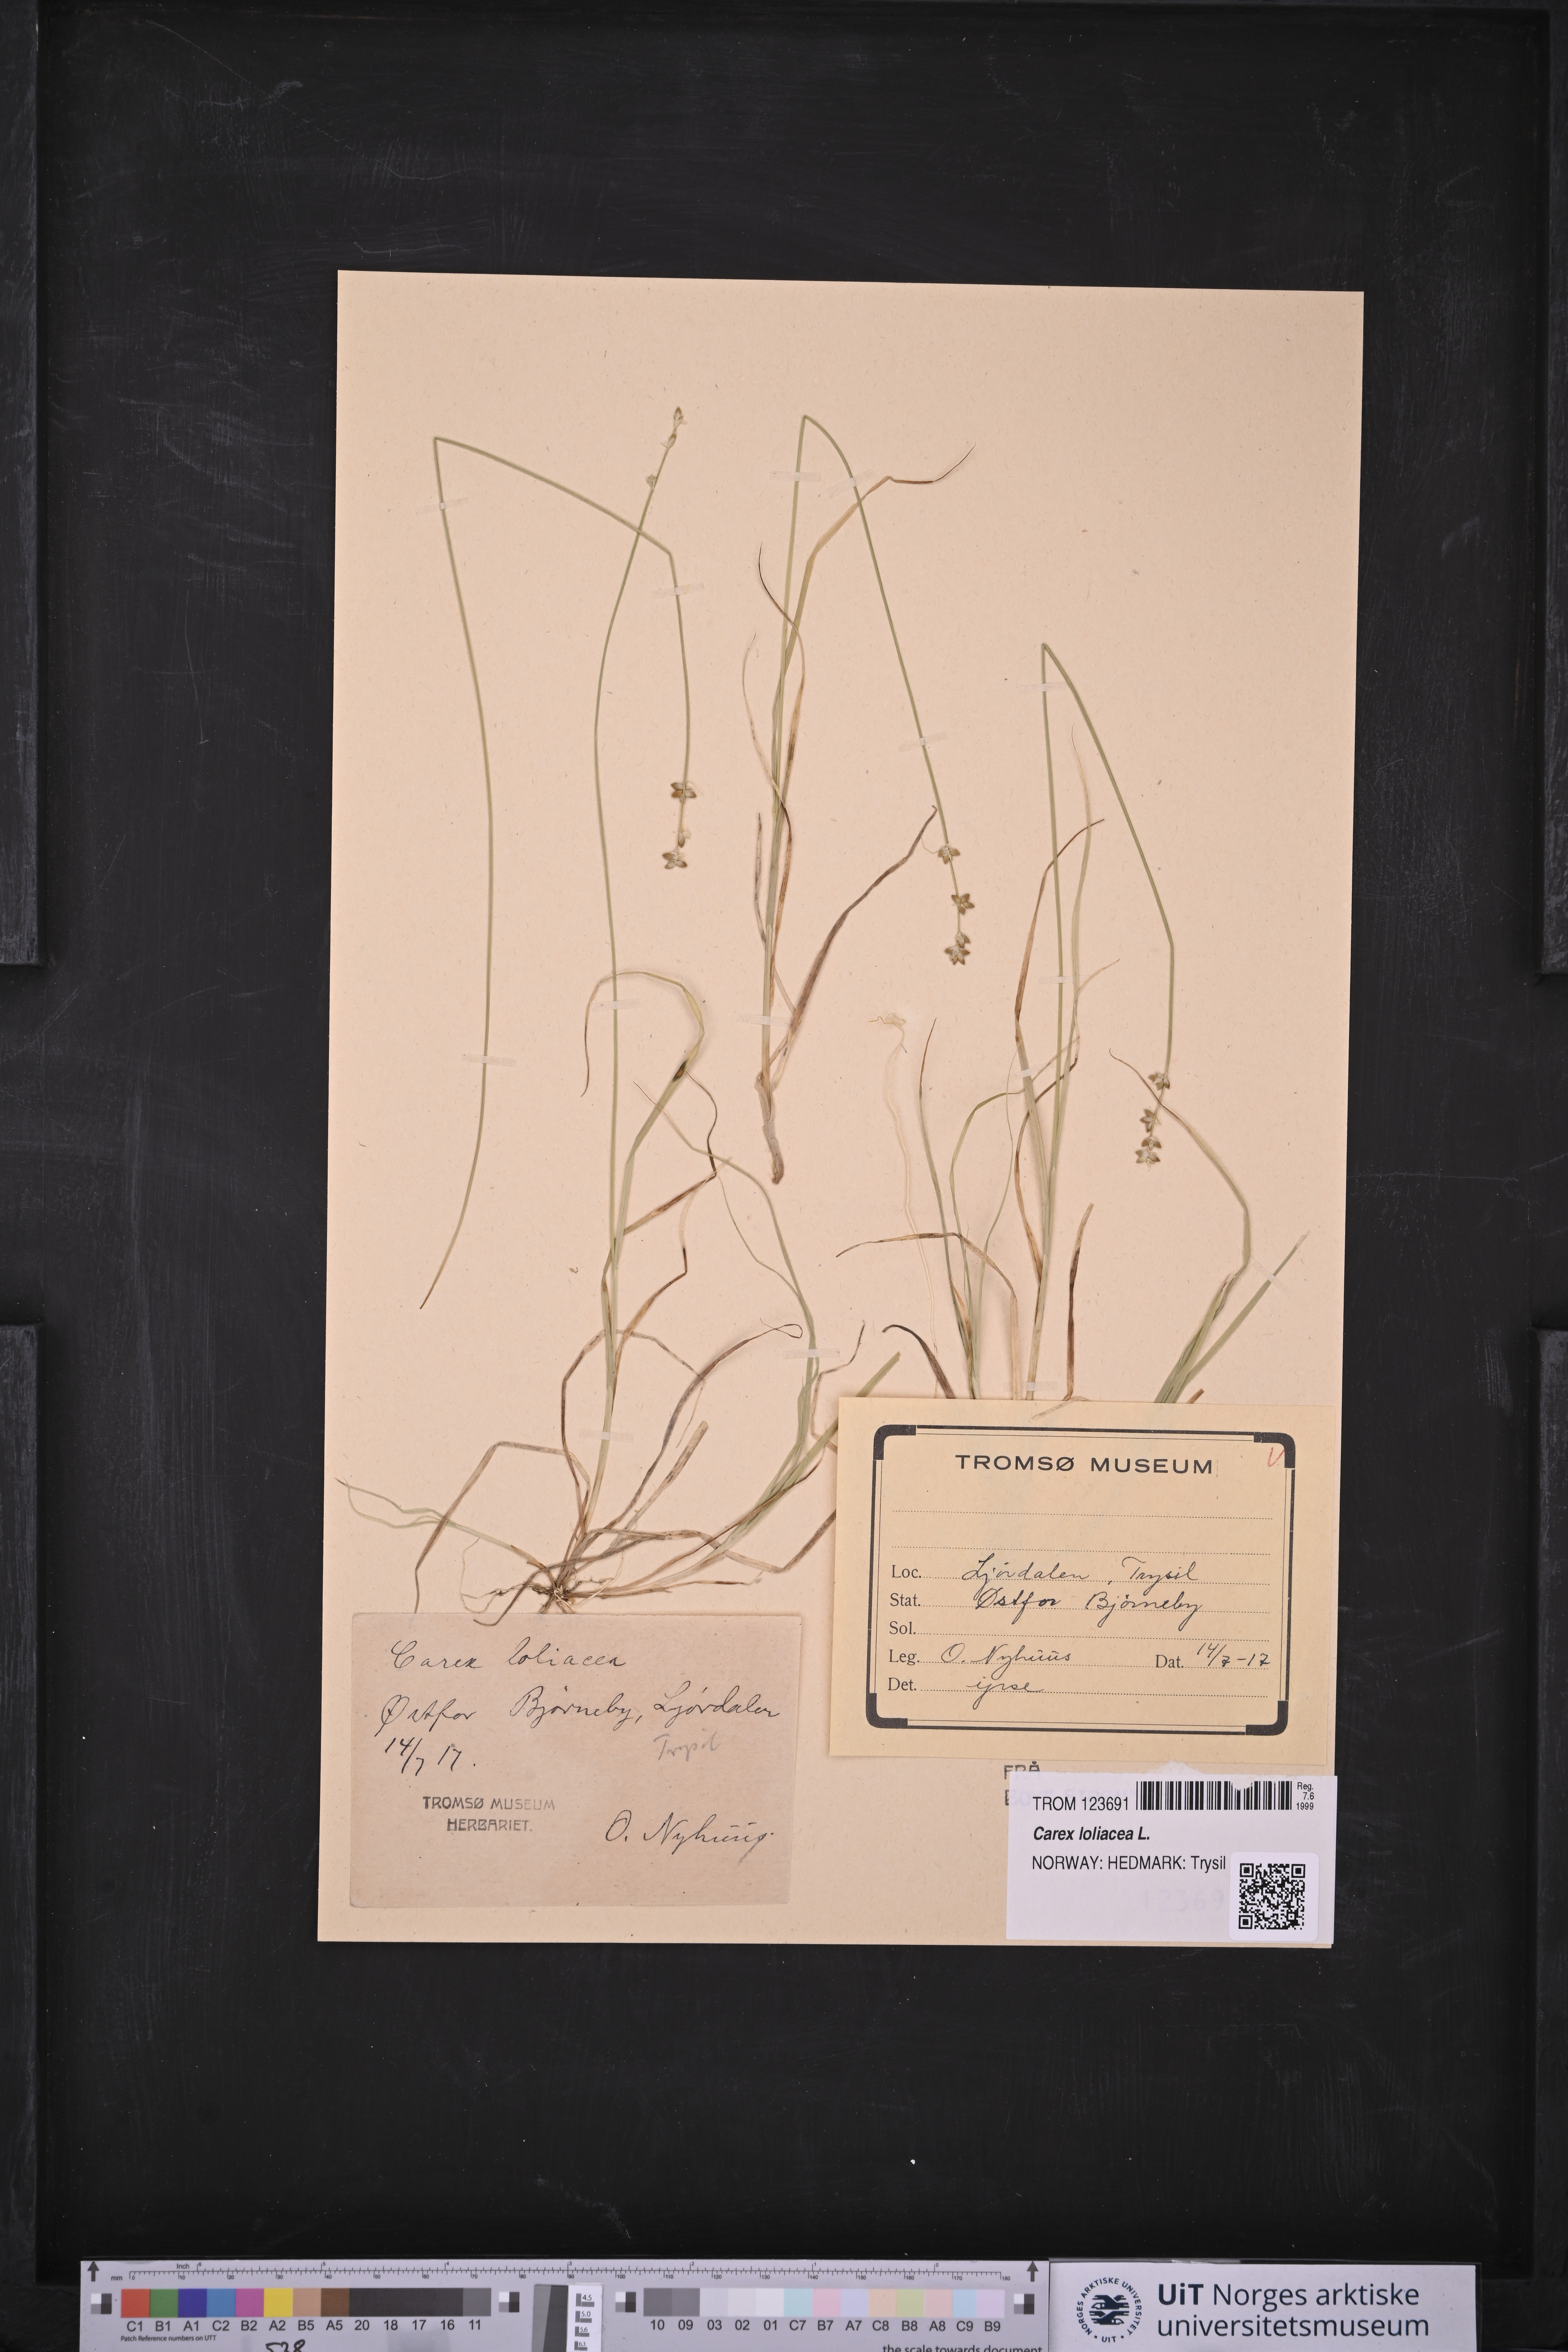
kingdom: Plantae
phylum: Tracheophyta
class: Liliopsida
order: Poales
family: Cyperaceae
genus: Carex
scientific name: Carex loliacea
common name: Ryegrass sedge
